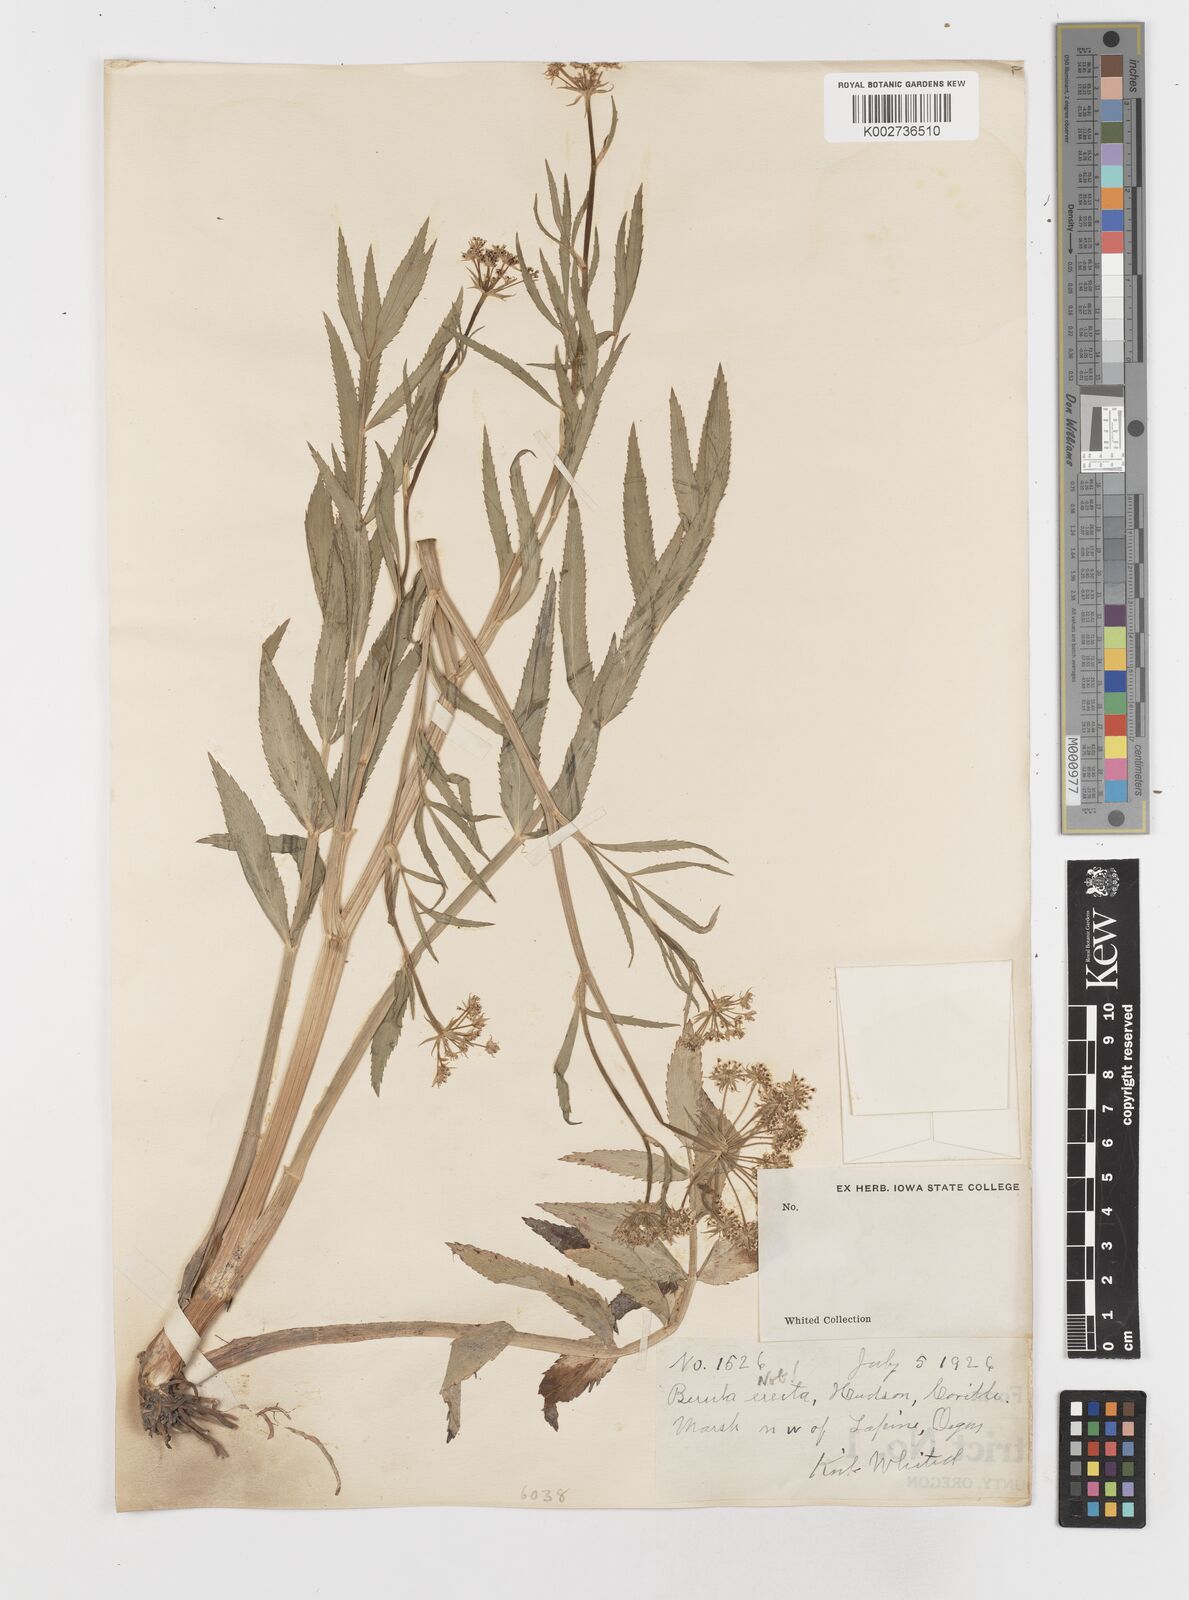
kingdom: Plantae
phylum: Tracheophyta
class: Magnoliopsida
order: Apiales
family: Apiaceae
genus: Sium
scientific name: Sium
